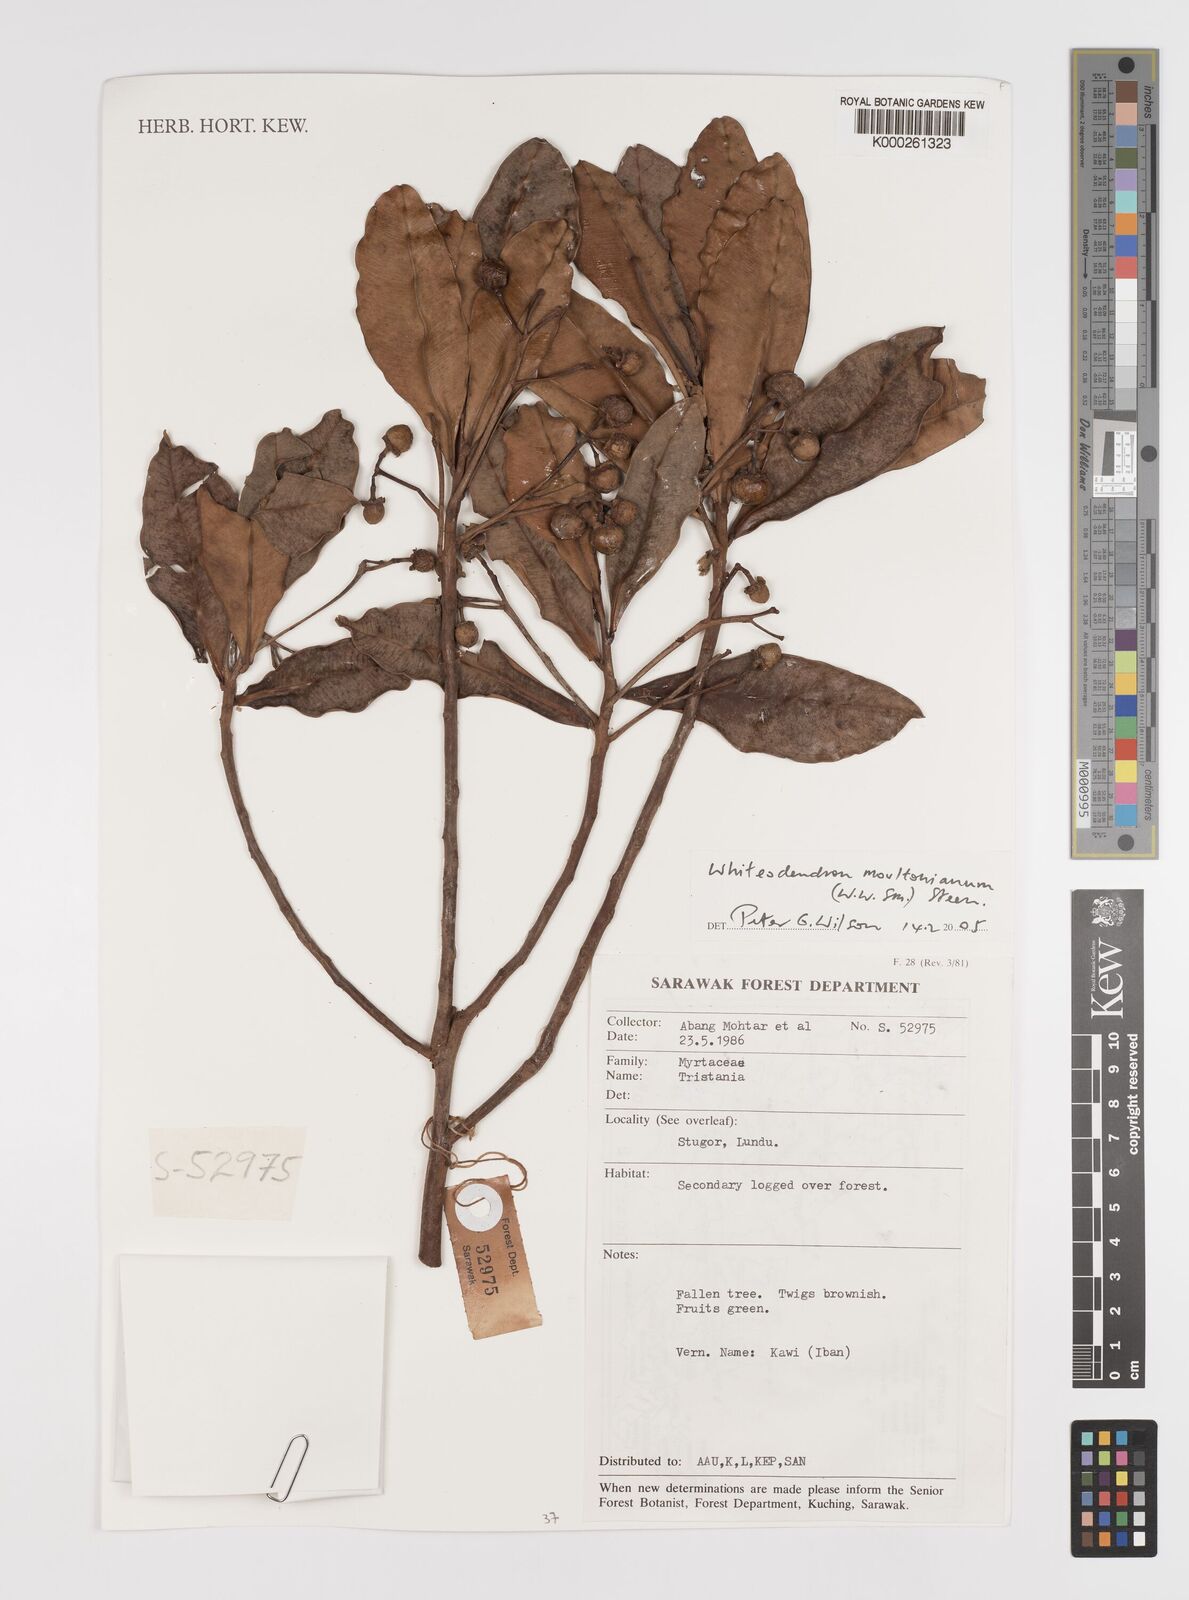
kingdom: Plantae
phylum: Tracheophyta
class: Magnoliopsida
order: Myrtales
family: Myrtaceae
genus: Whiteodendron
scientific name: Whiteodendron moultonianum
